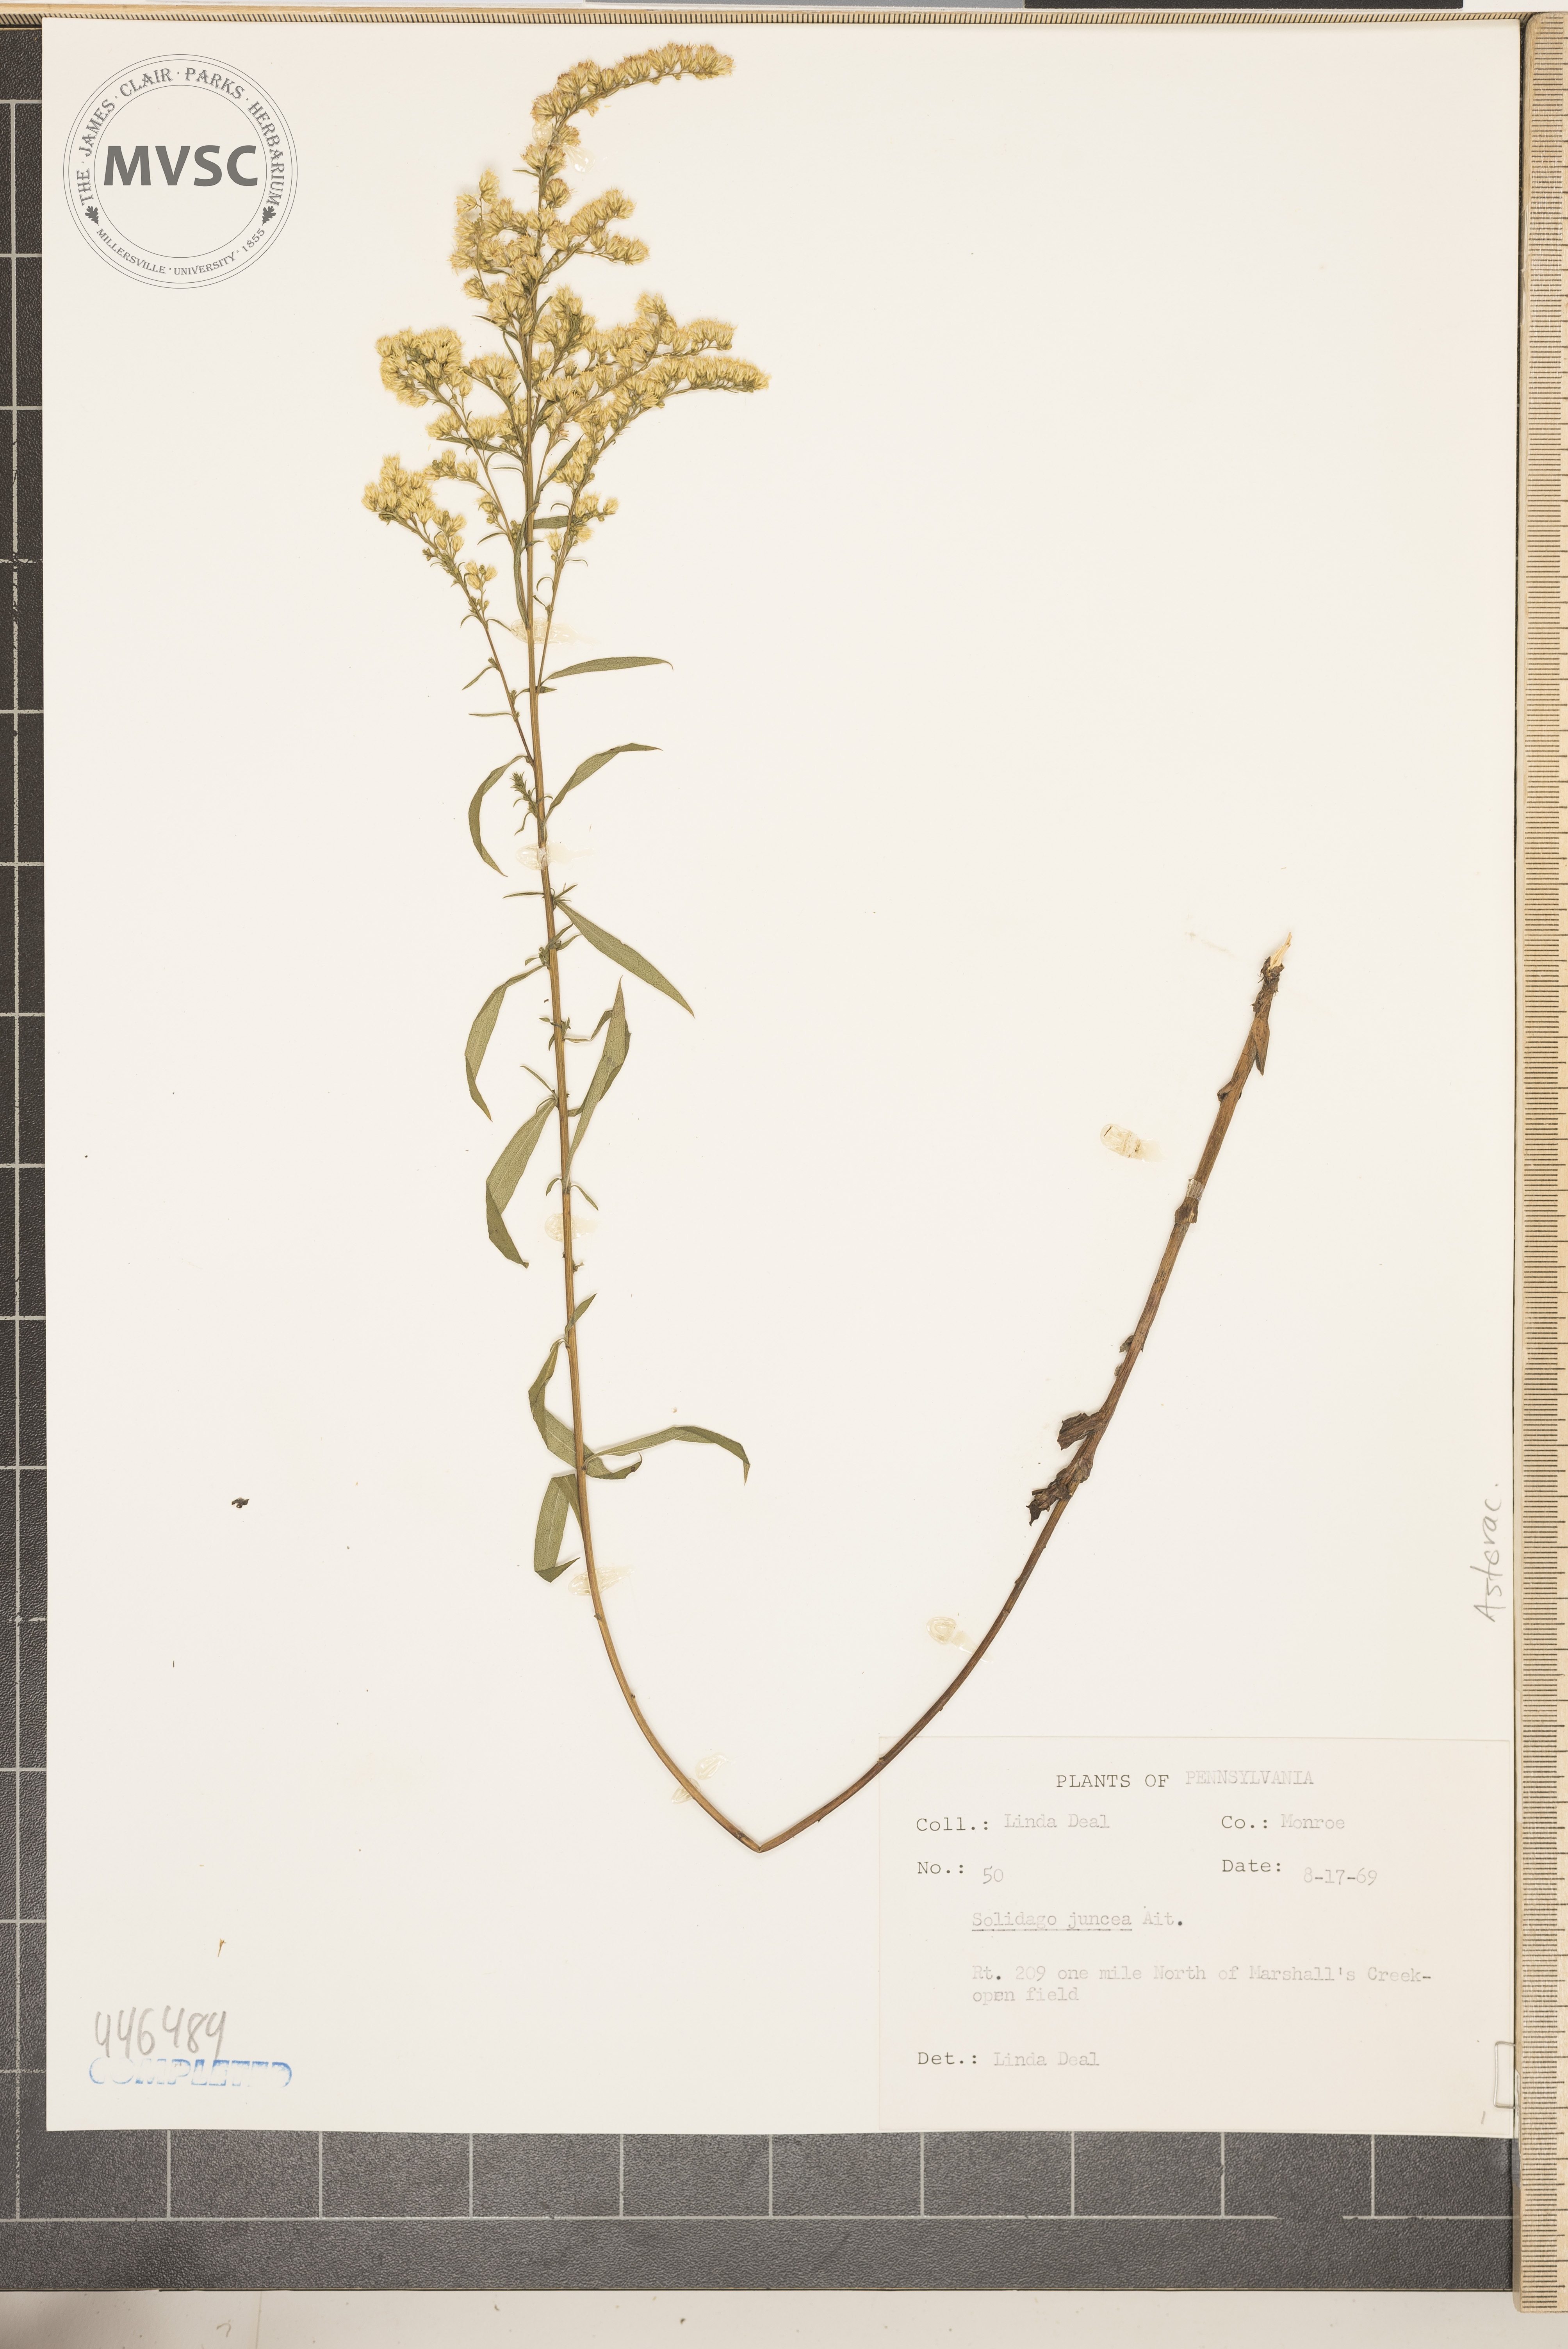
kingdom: Plantae
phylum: Tracheophyta
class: Magnoliopsida
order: Asterales
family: Asteraceae
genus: Solidago
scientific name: Solidago juncea
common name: Early goldenrod
